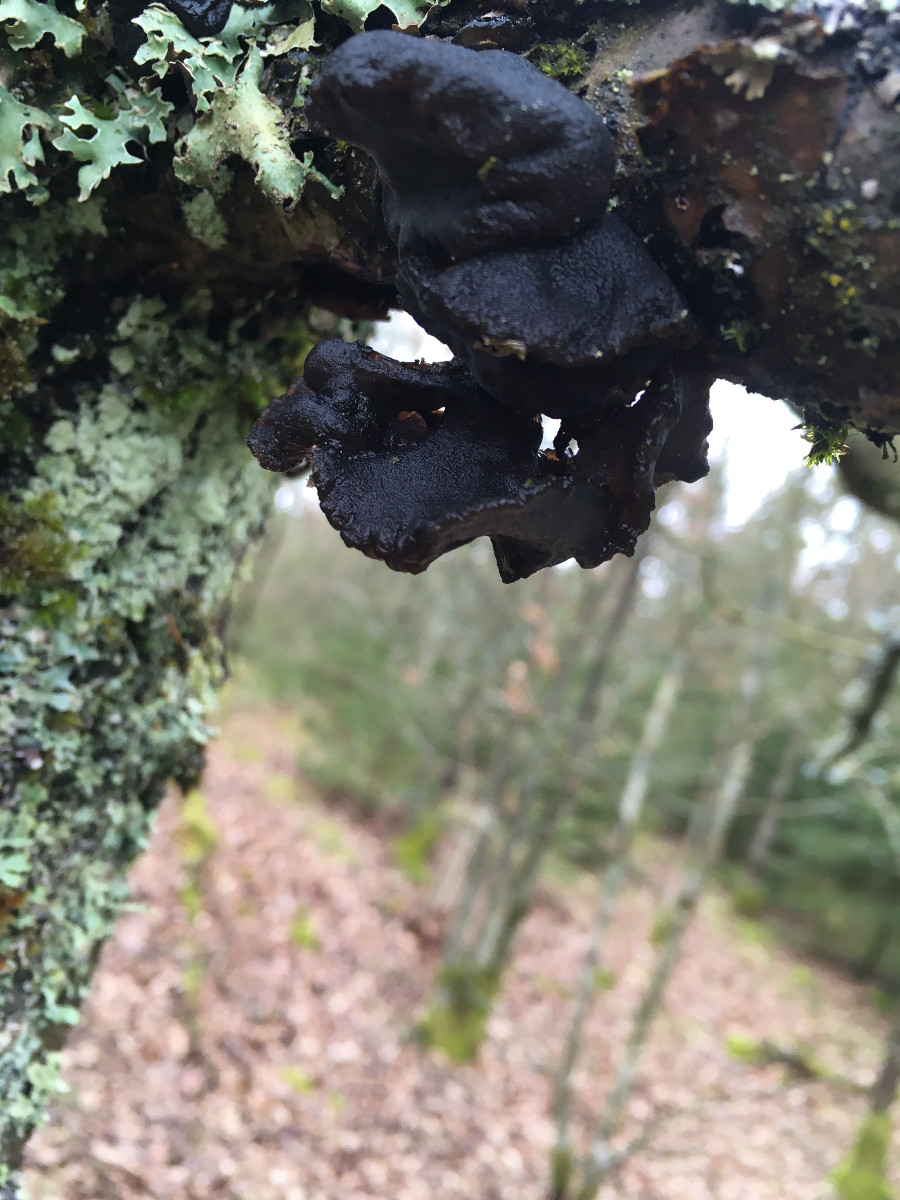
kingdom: Fungi
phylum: Basidiomycota
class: Agaricomycetes
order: Auriculariales
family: Auriculariaceae
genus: Exidia
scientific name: Exidia glandulosa
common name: ege-bævretop
